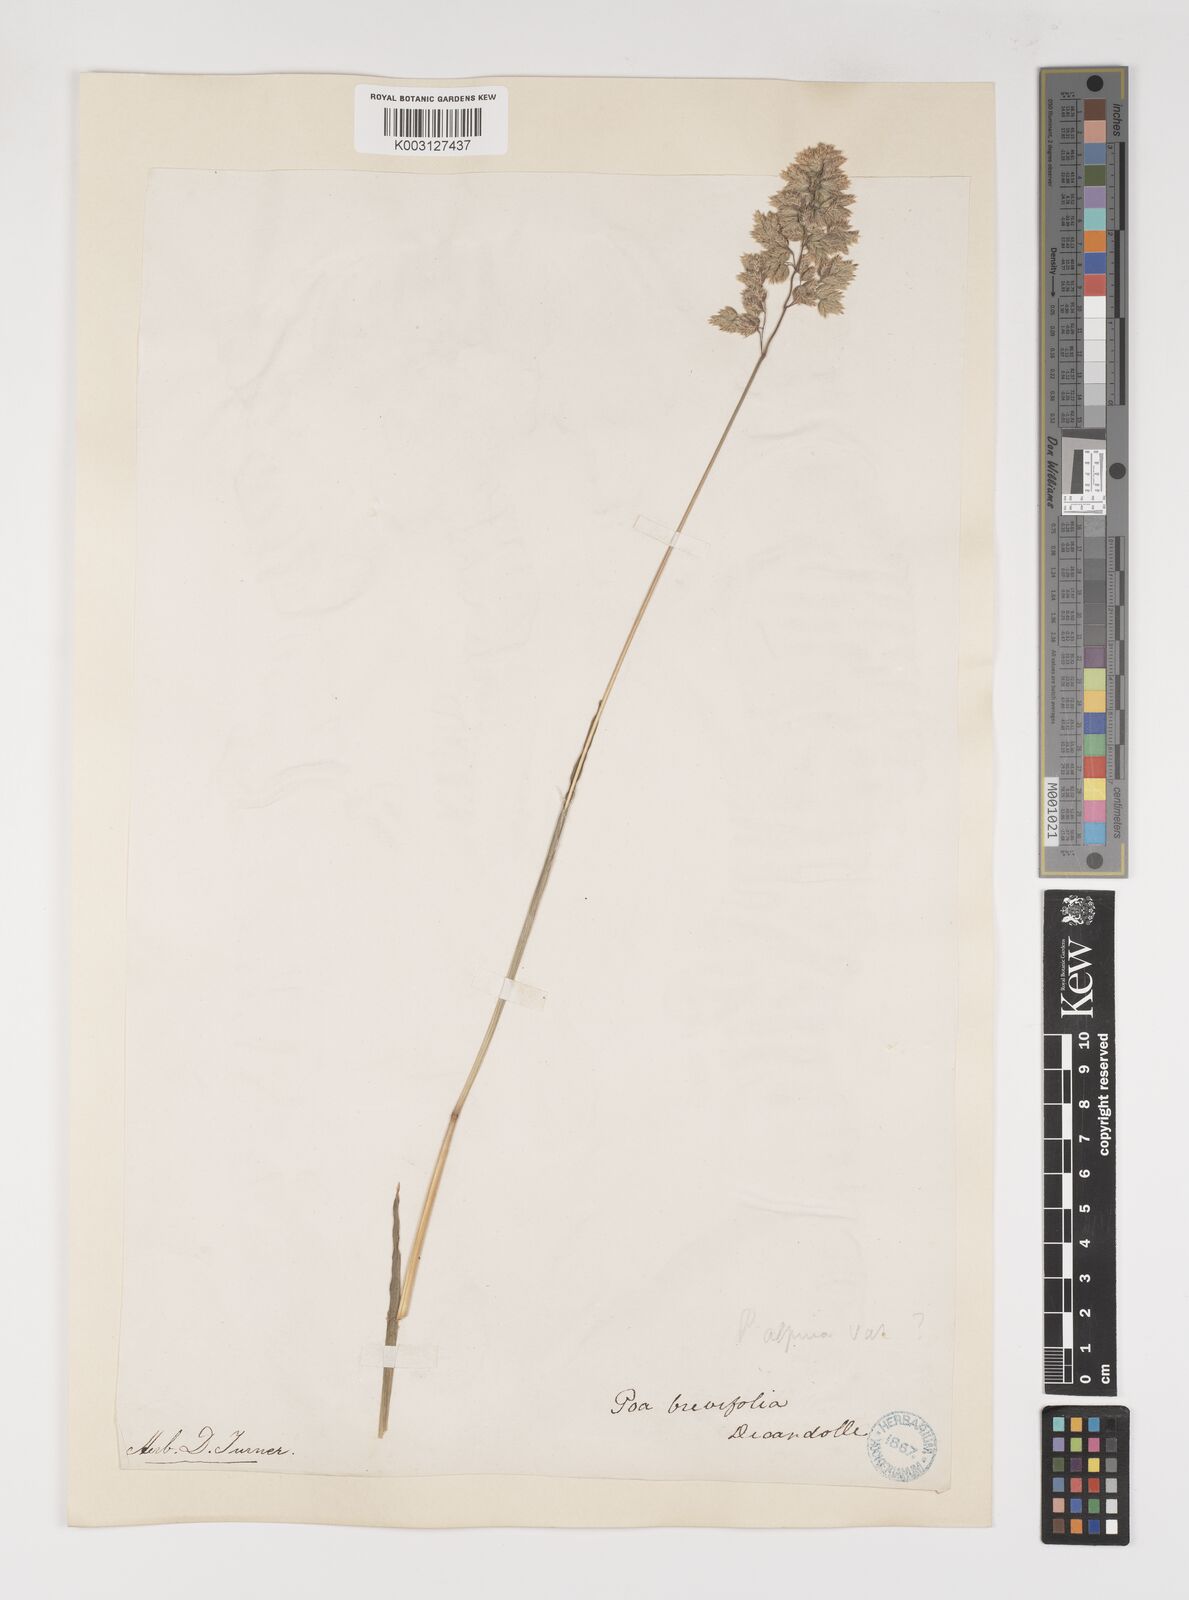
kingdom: Plantae
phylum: Tracheophyta
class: Liliopsida
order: Poales
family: Poaceae
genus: Poa
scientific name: Poa alpina
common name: Alpine bluegrass
